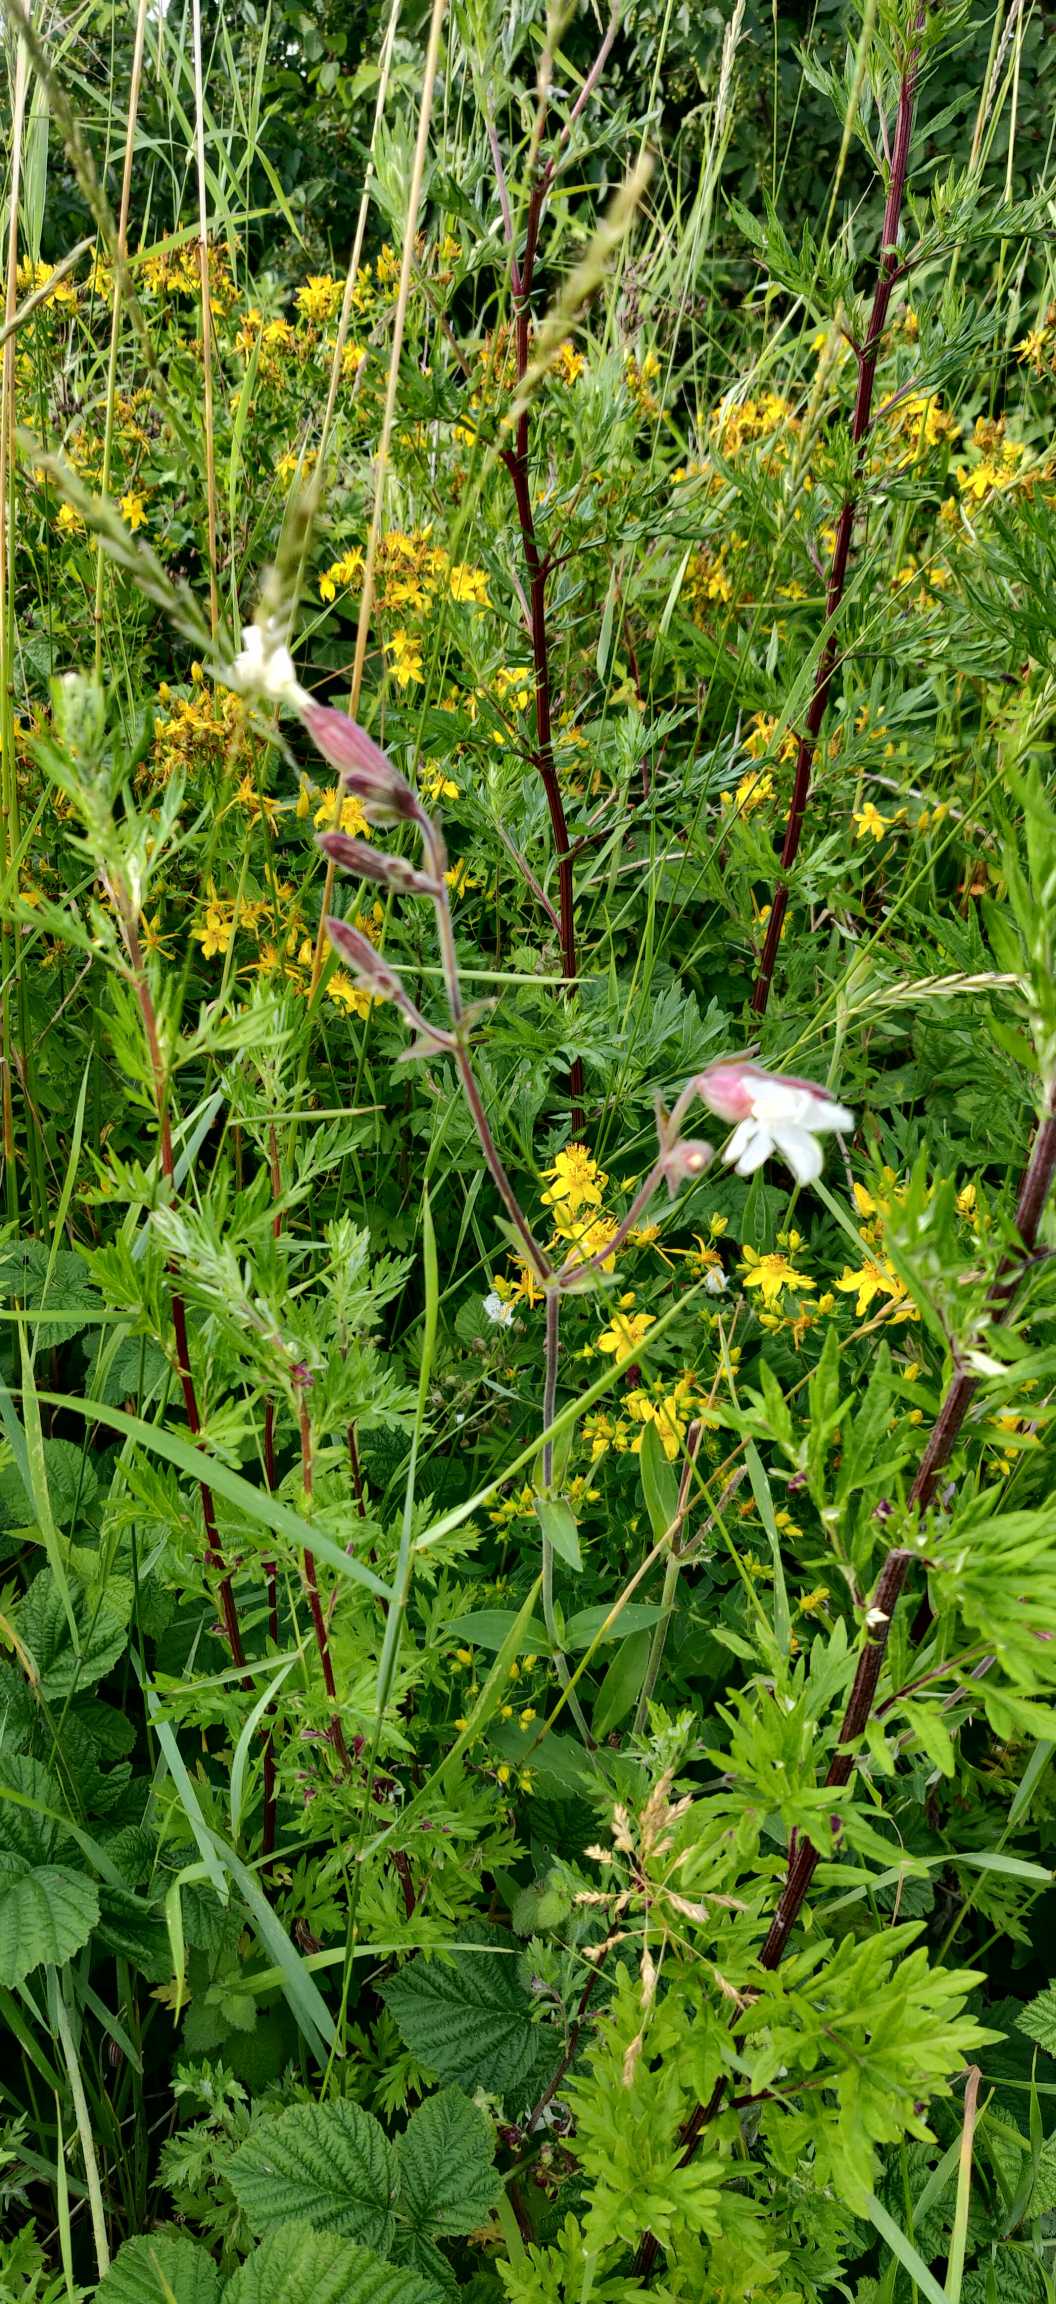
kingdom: Plantae
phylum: Tracheophyta
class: Magnoliopsida
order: Caryophyllales
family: Caryophyllaceae
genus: Silene
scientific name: Silene latifolia
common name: Aftenpragtstjerne
